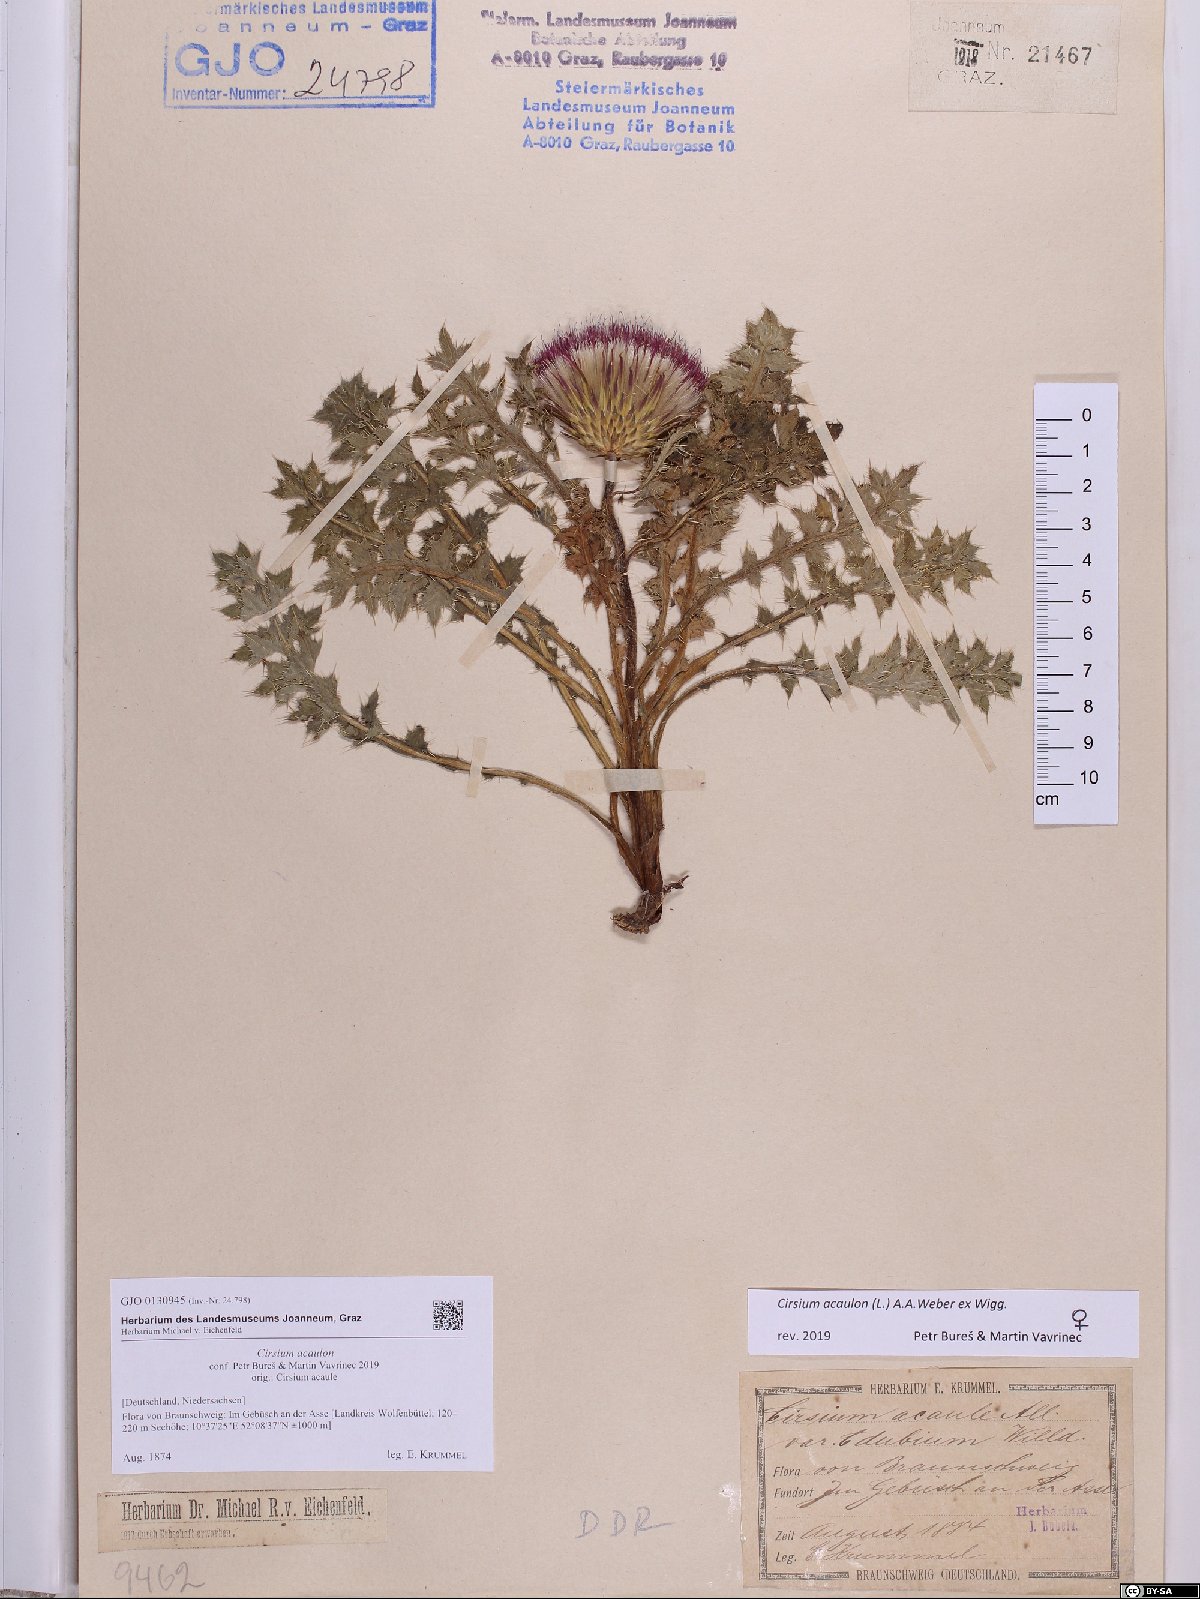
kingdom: Plantae
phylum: Tracheophyta
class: Magnoliopsida
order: Asterales
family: Asteraceae
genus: Cirsium
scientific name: Cirsium acaulon
